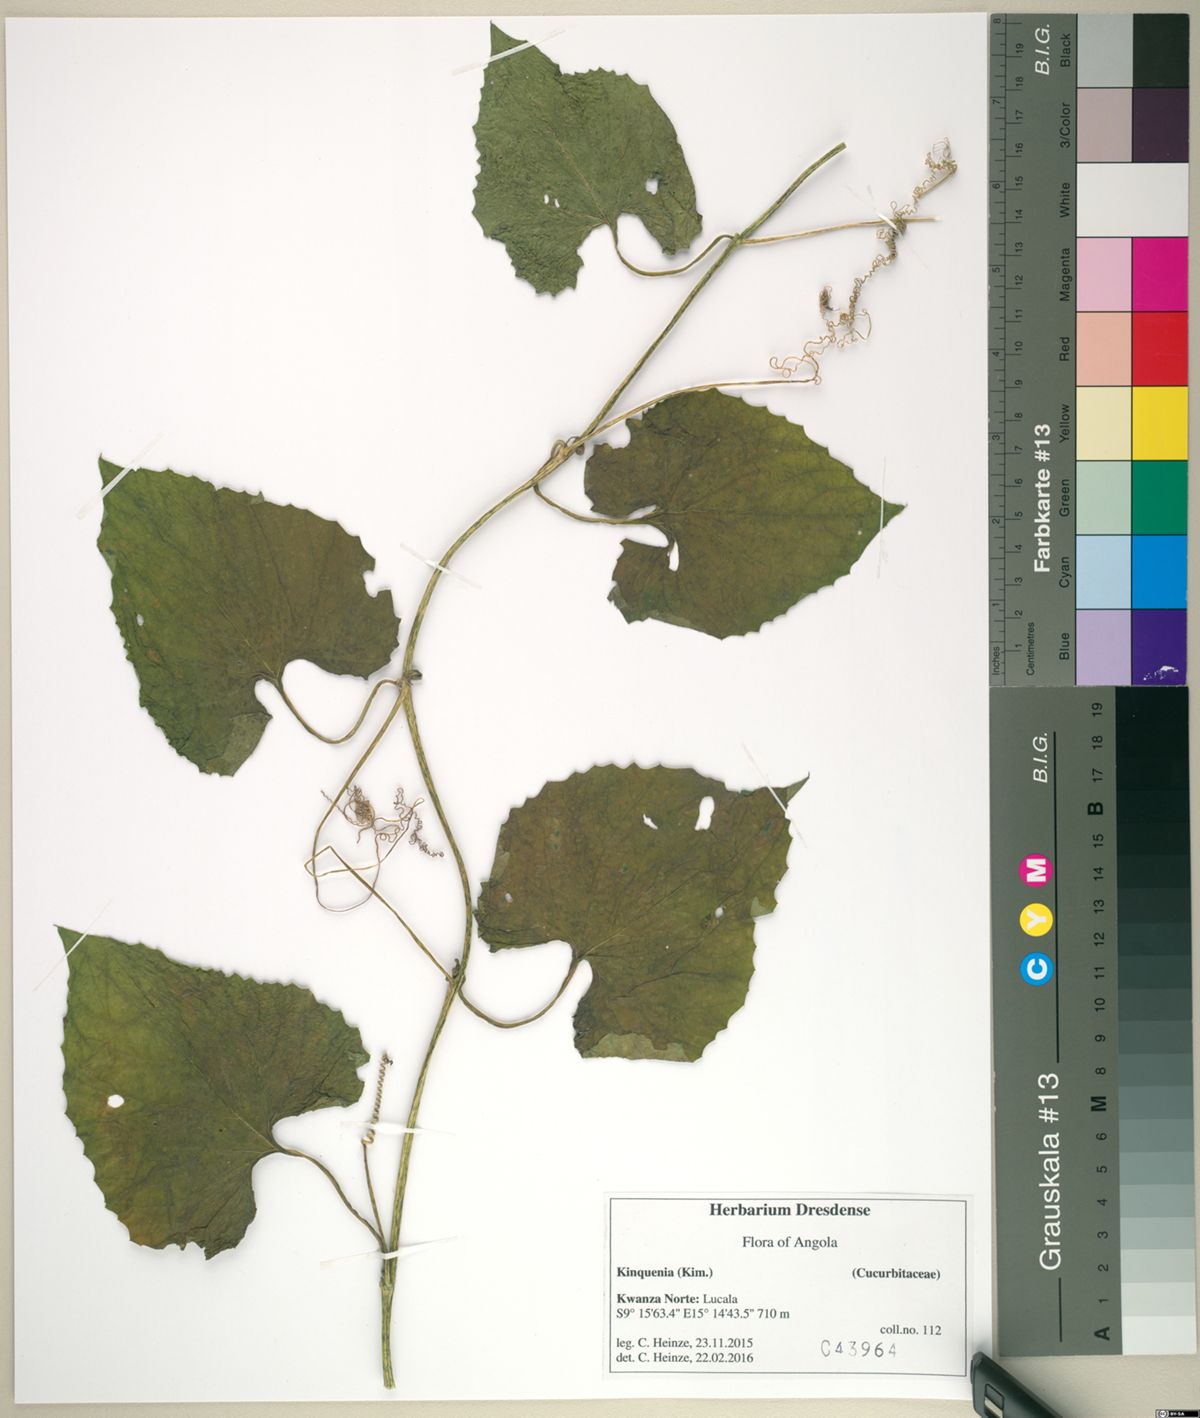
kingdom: Plantae
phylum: Tracheophyta
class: Magnoliopsida
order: Cucurbitales
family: Cucurbitaceae
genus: Momordica
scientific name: Momordica foetida
